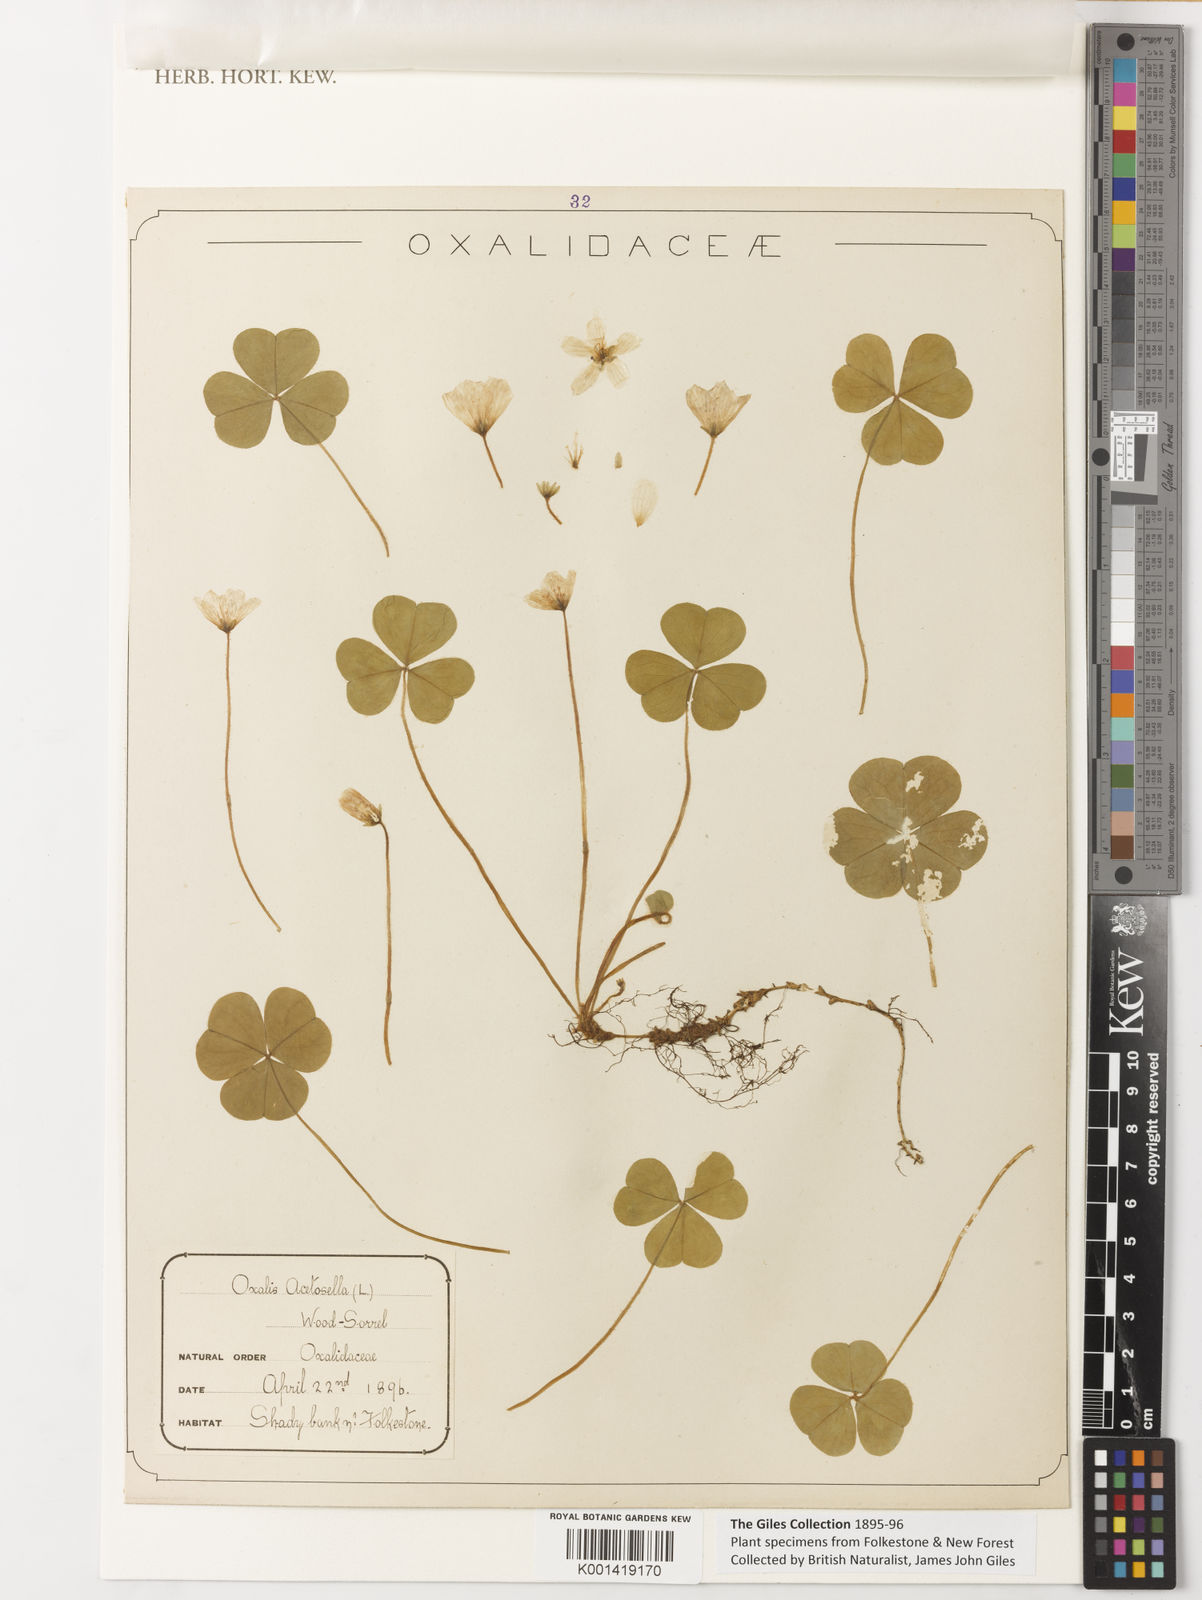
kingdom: Plantae
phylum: Tracheophyta
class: Magnoliopsida
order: Oxalidales
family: Oxalidaceae
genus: Oxalis
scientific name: Oxalis acetosella
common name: Wood-sorrel
